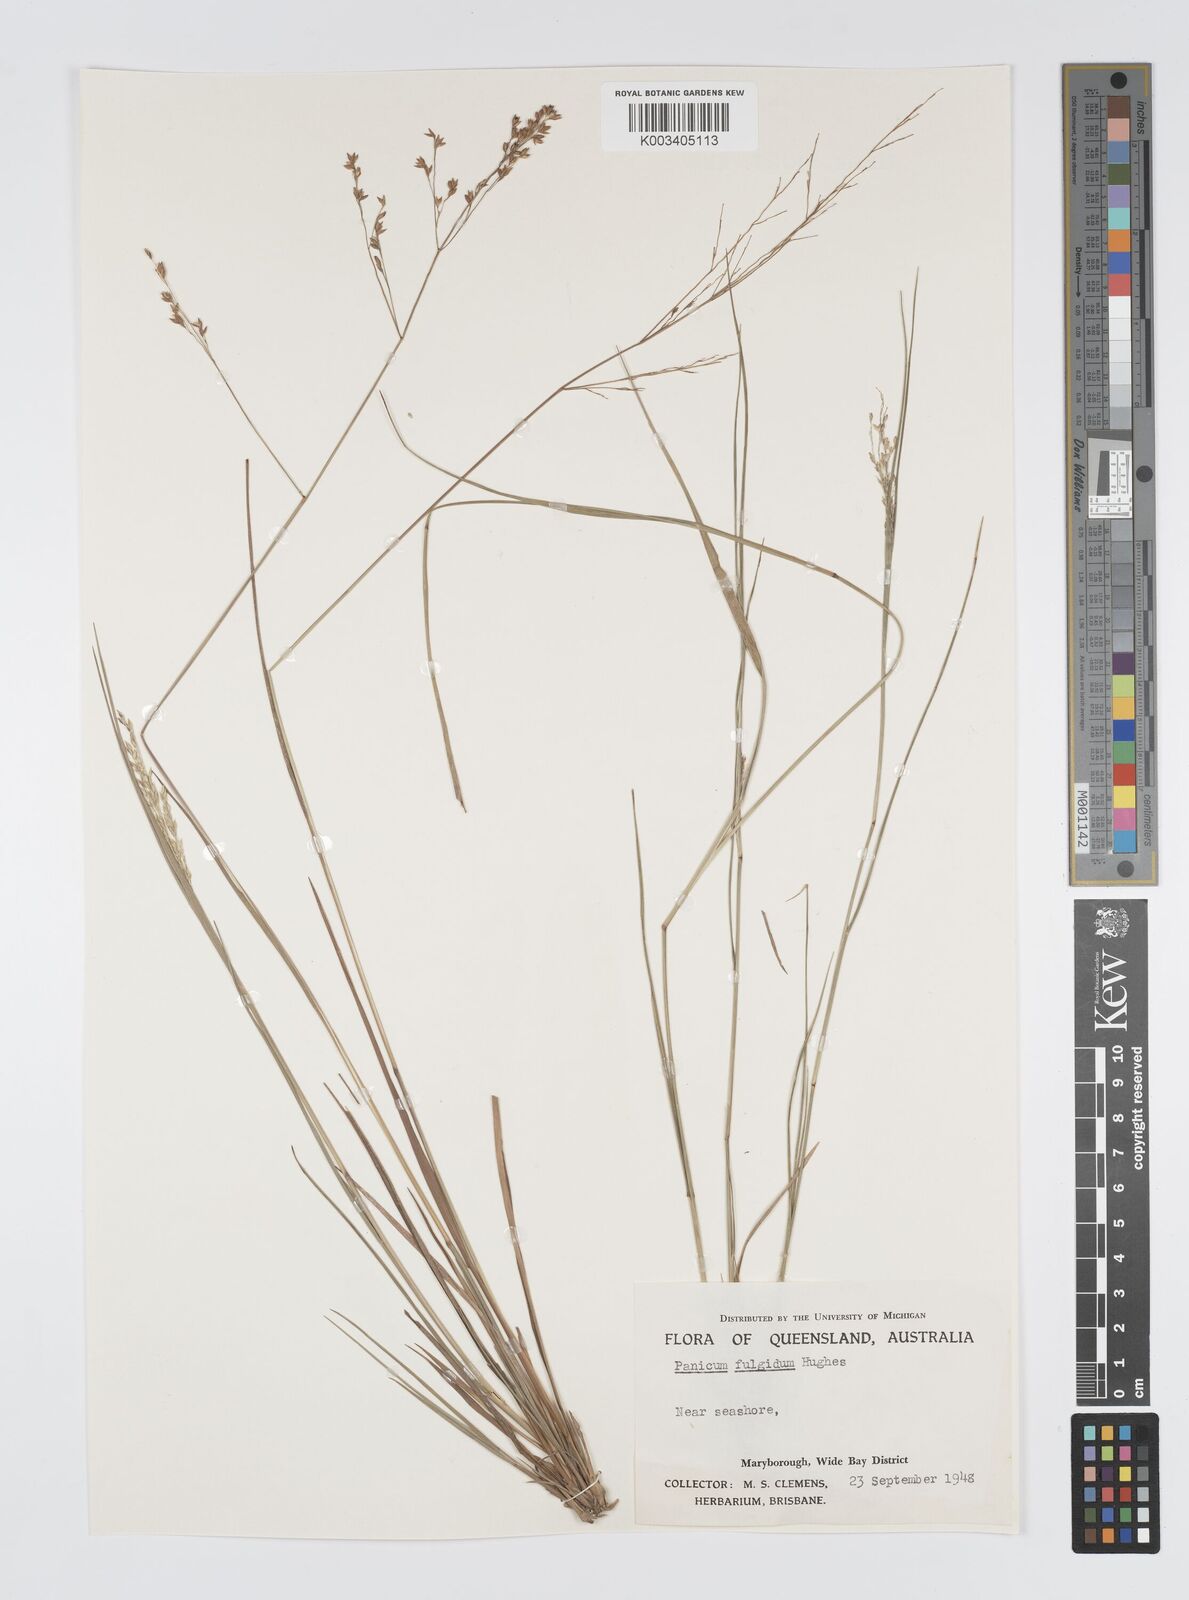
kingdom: Plantae
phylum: Tracheophyta
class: Liliopsida
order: Poales
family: Poaceae
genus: Panicum
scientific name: Panicum simile
